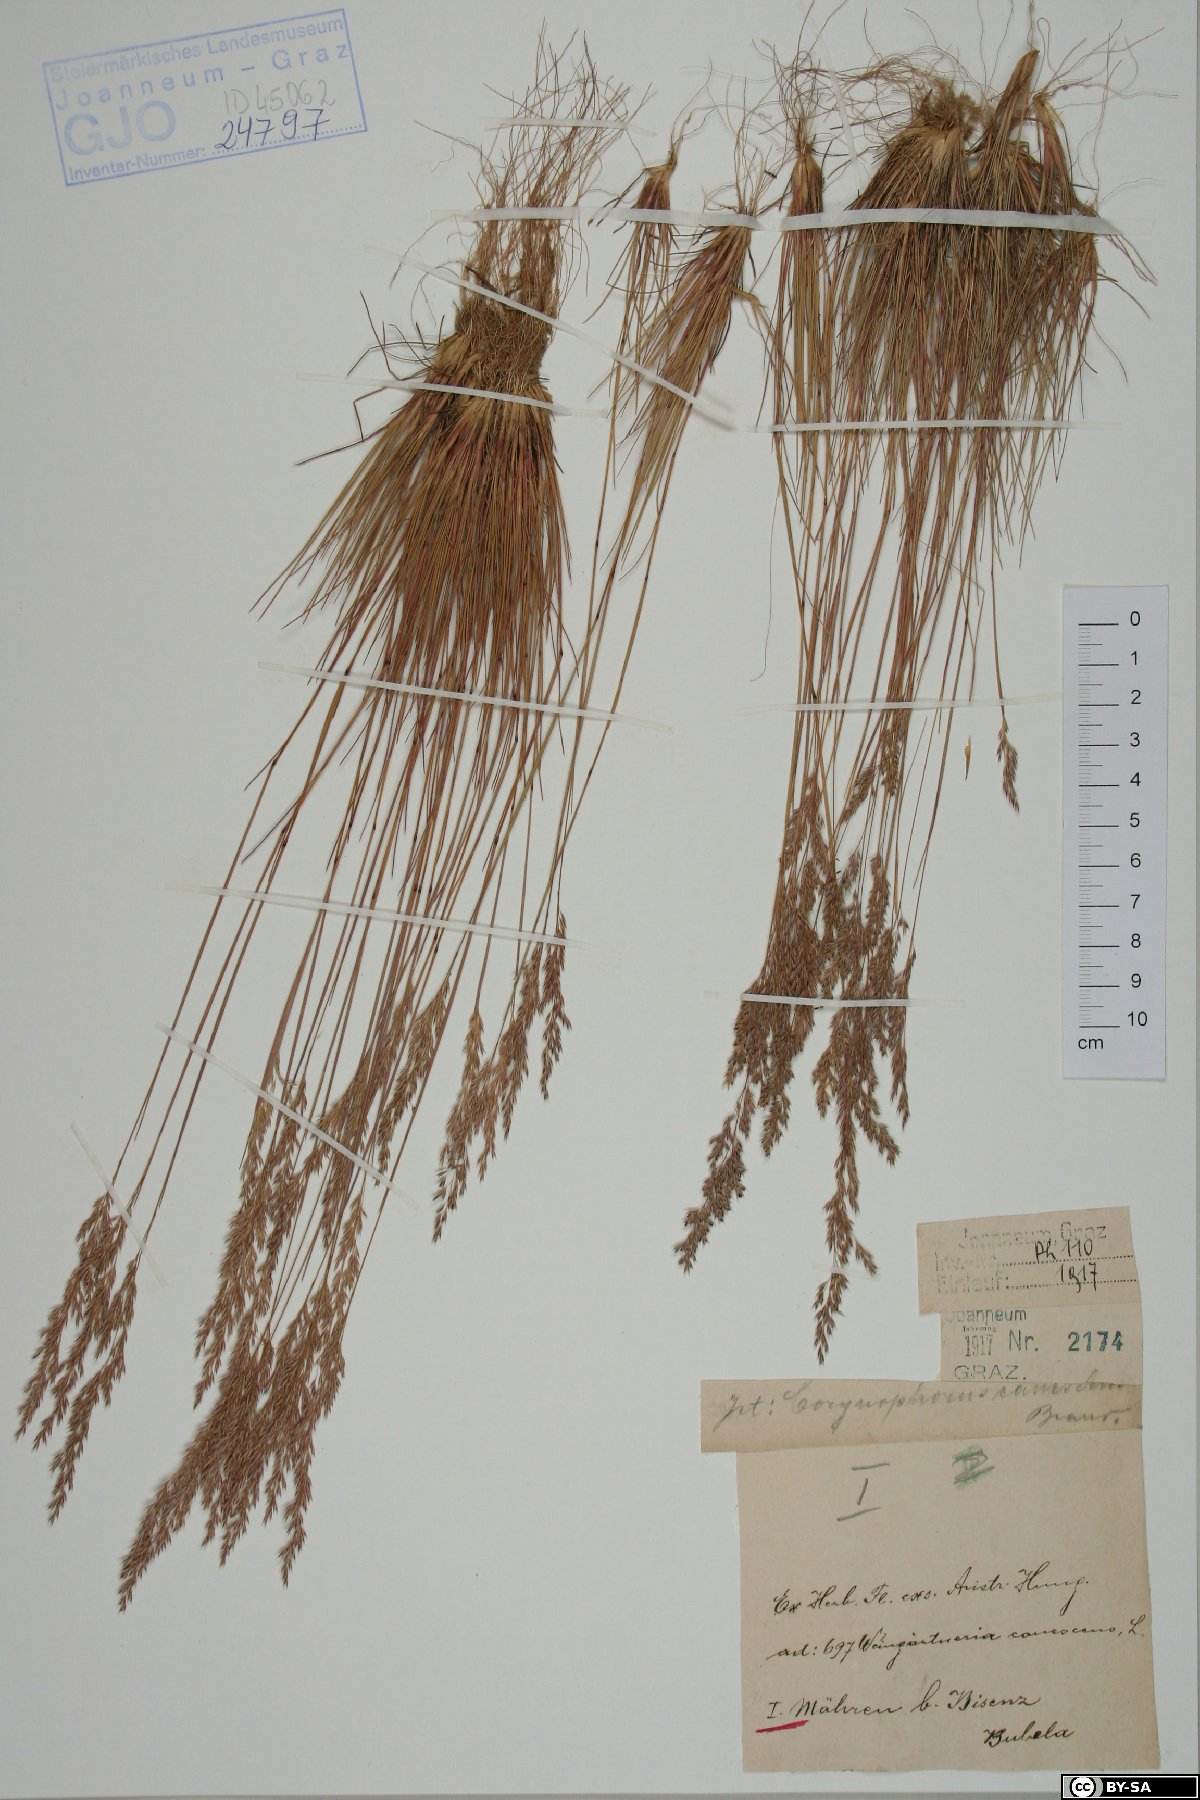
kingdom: Plantae
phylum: Tracheophyta
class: Liliopsida
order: Poales
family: Poaceae
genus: Corynephorus
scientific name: Corynephorus canescens
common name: Grey hair-grass
